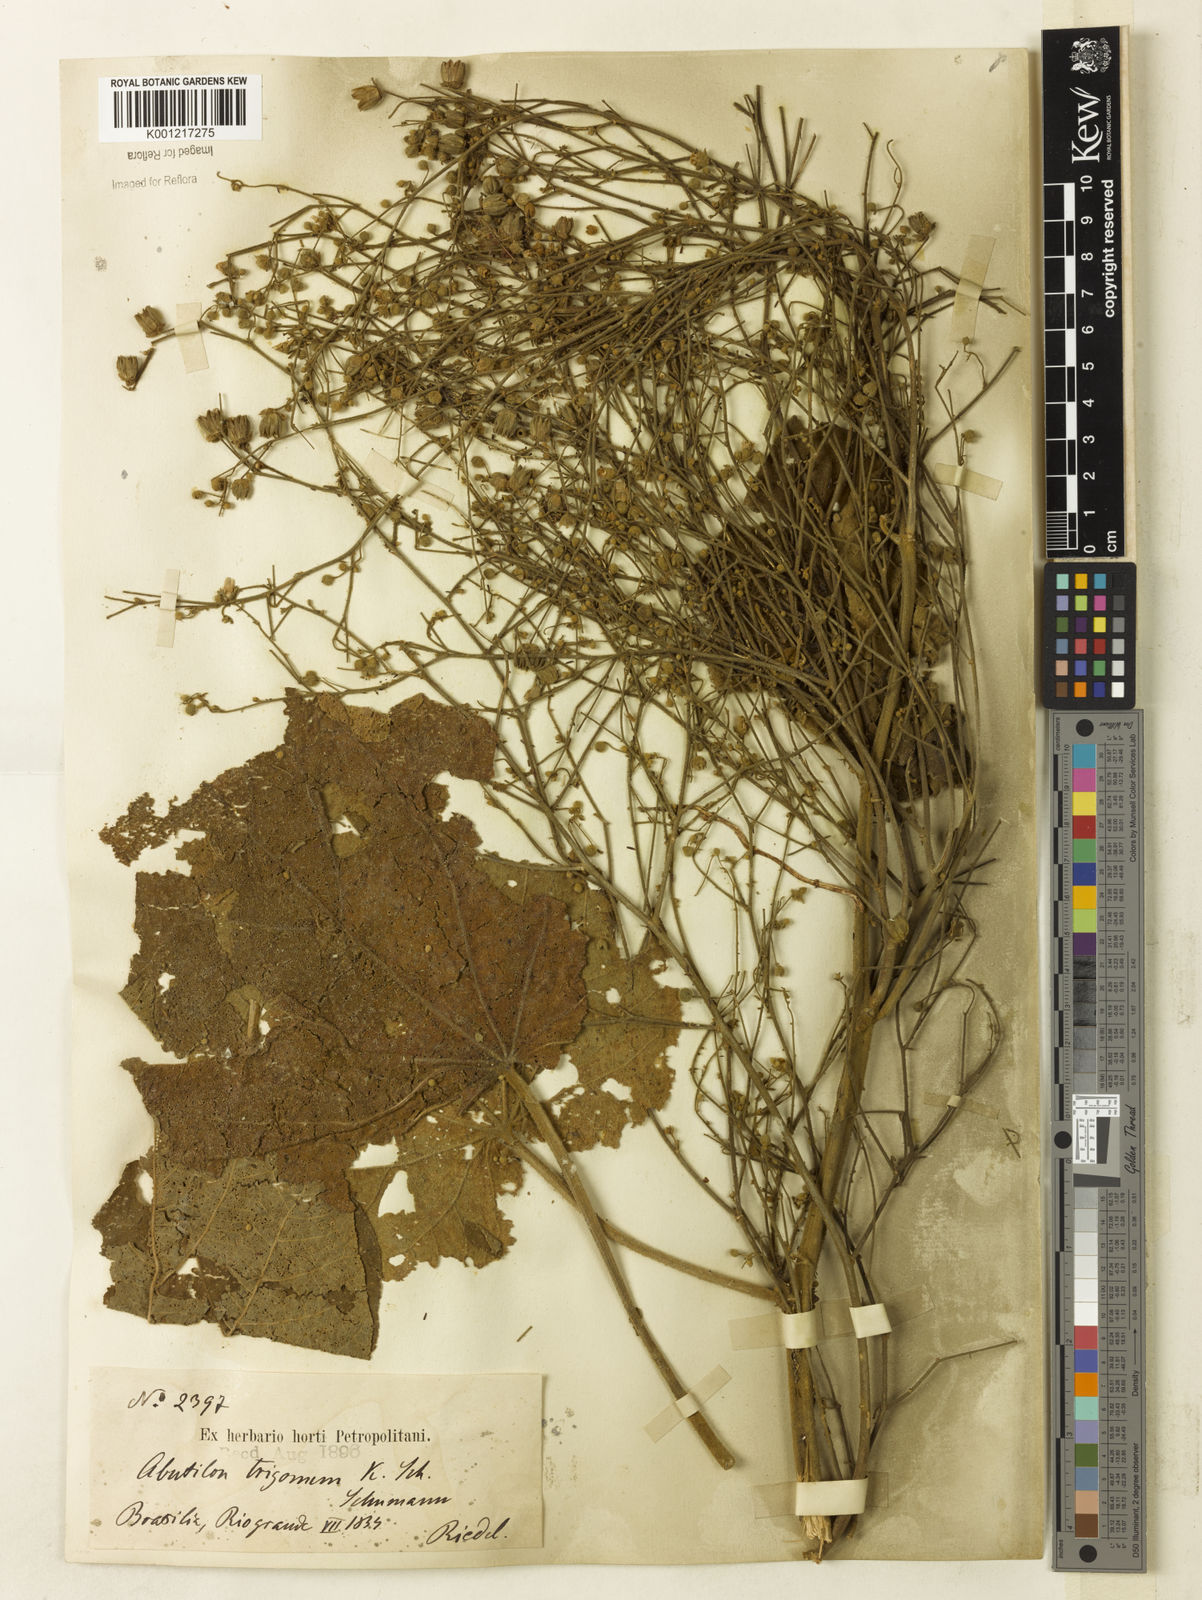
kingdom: Plantae
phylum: Tracheophyta
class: Magnoliopsida
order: Malvales
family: Malvaceae
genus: Abutilon
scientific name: Abutilon ramiflorum
